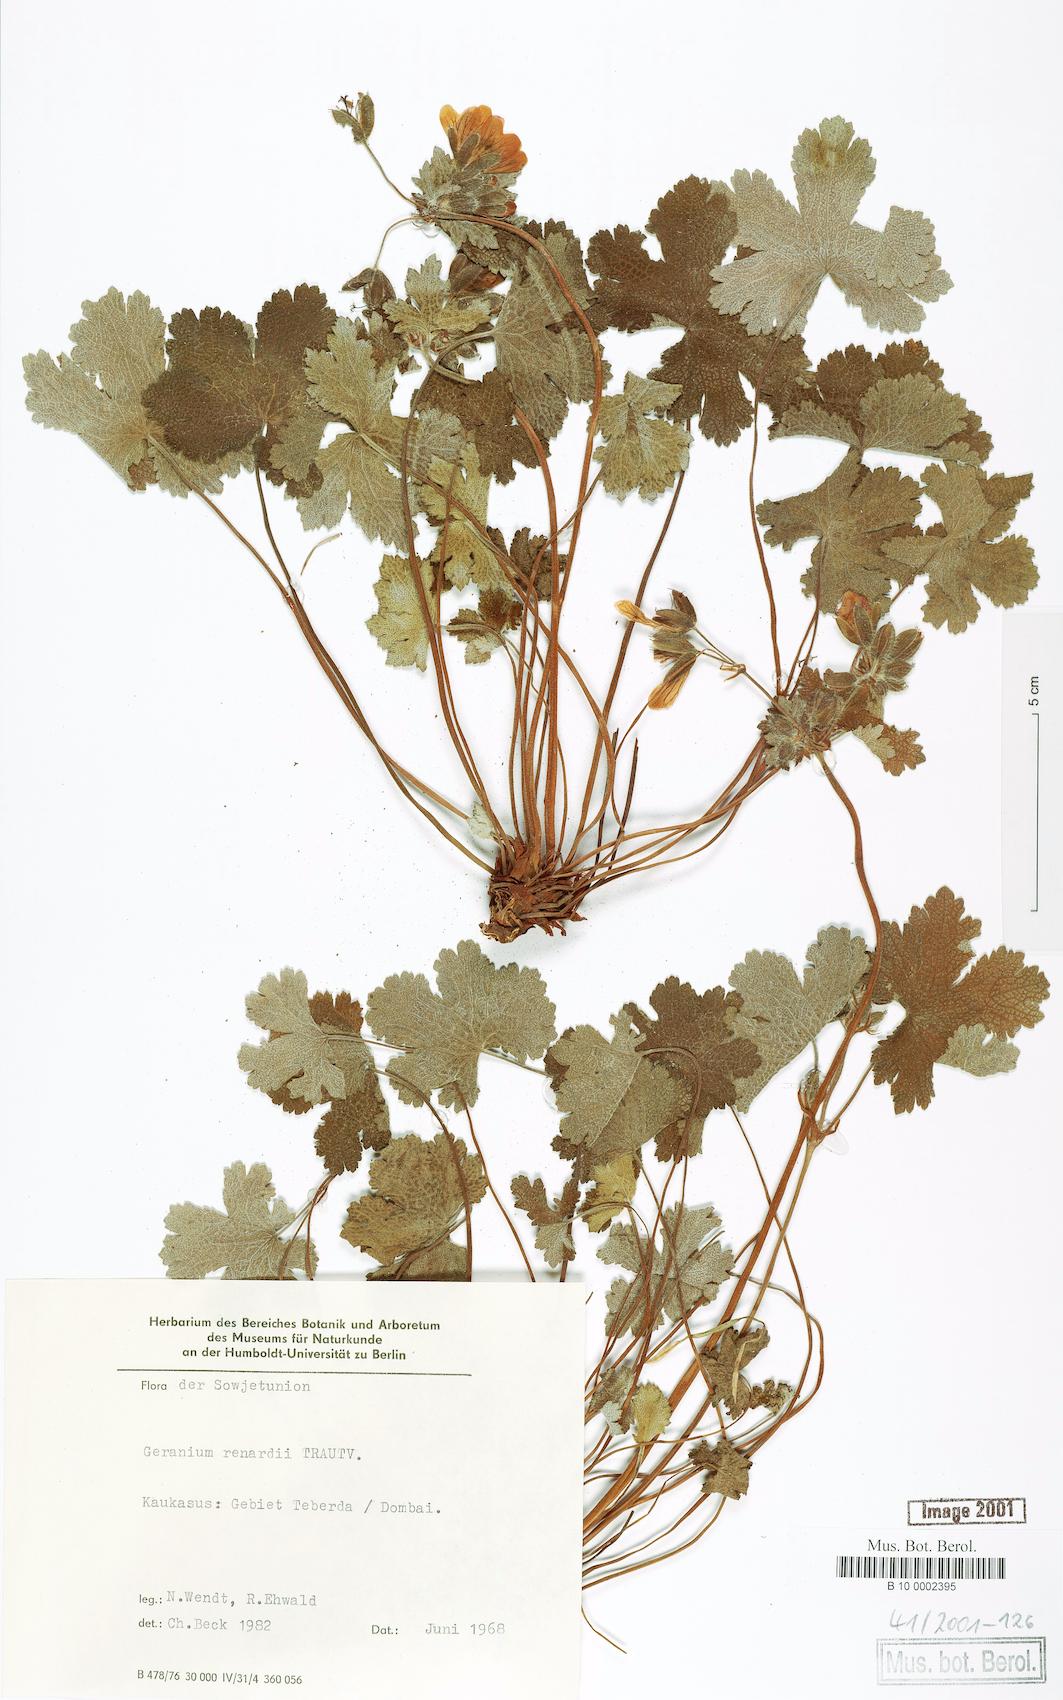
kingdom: Plantae
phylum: Tracheophyta
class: Magnoliopsida
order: Geraniales
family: Geraniaceae
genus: Geranium
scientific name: Geranium renardii
